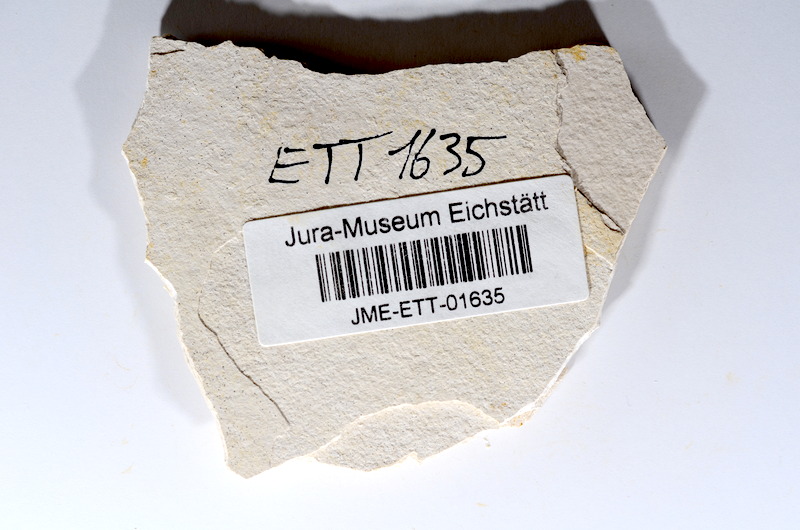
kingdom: Animalia
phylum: Chordata
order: Salmoniformes
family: Orthogonikleithridae
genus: Orthogonikleithrus
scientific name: Orthogonikleithrus hoelli
